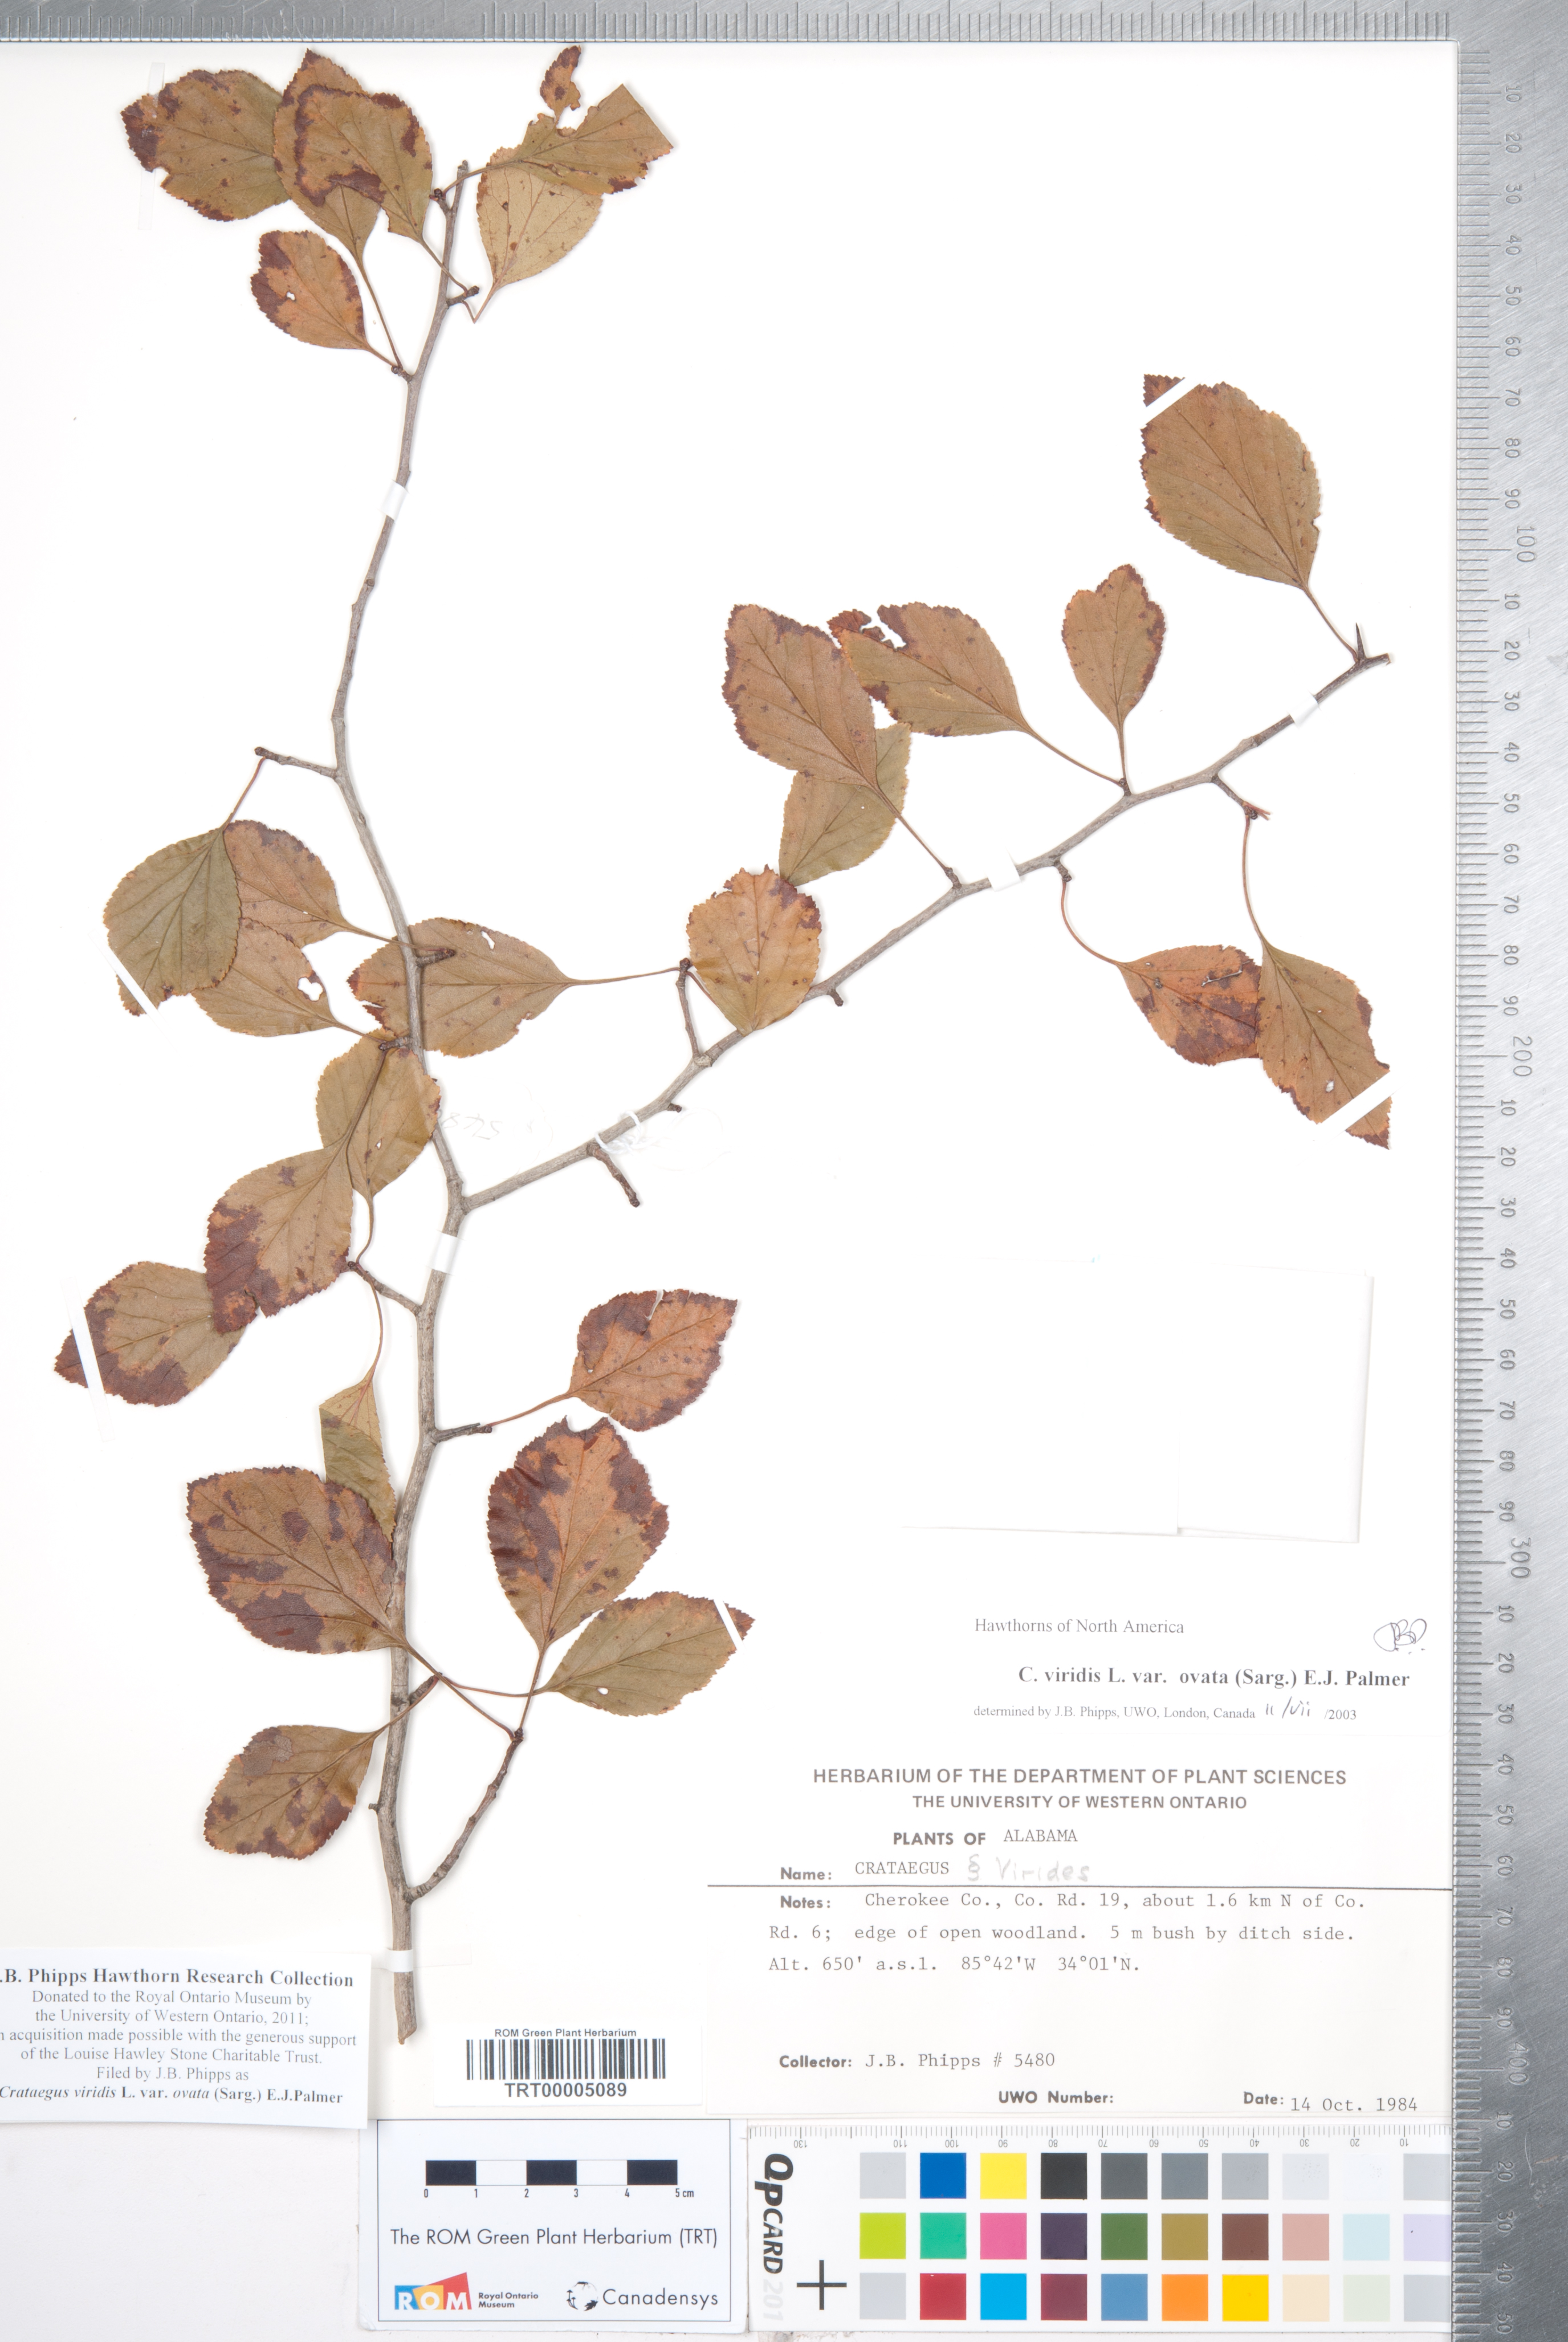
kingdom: Plantae
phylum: Tracheophyta
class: Magnoliopsida
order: Rosales
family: Rosaceae
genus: Crataegus
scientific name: Crataegus viridis
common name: Southernthorn
